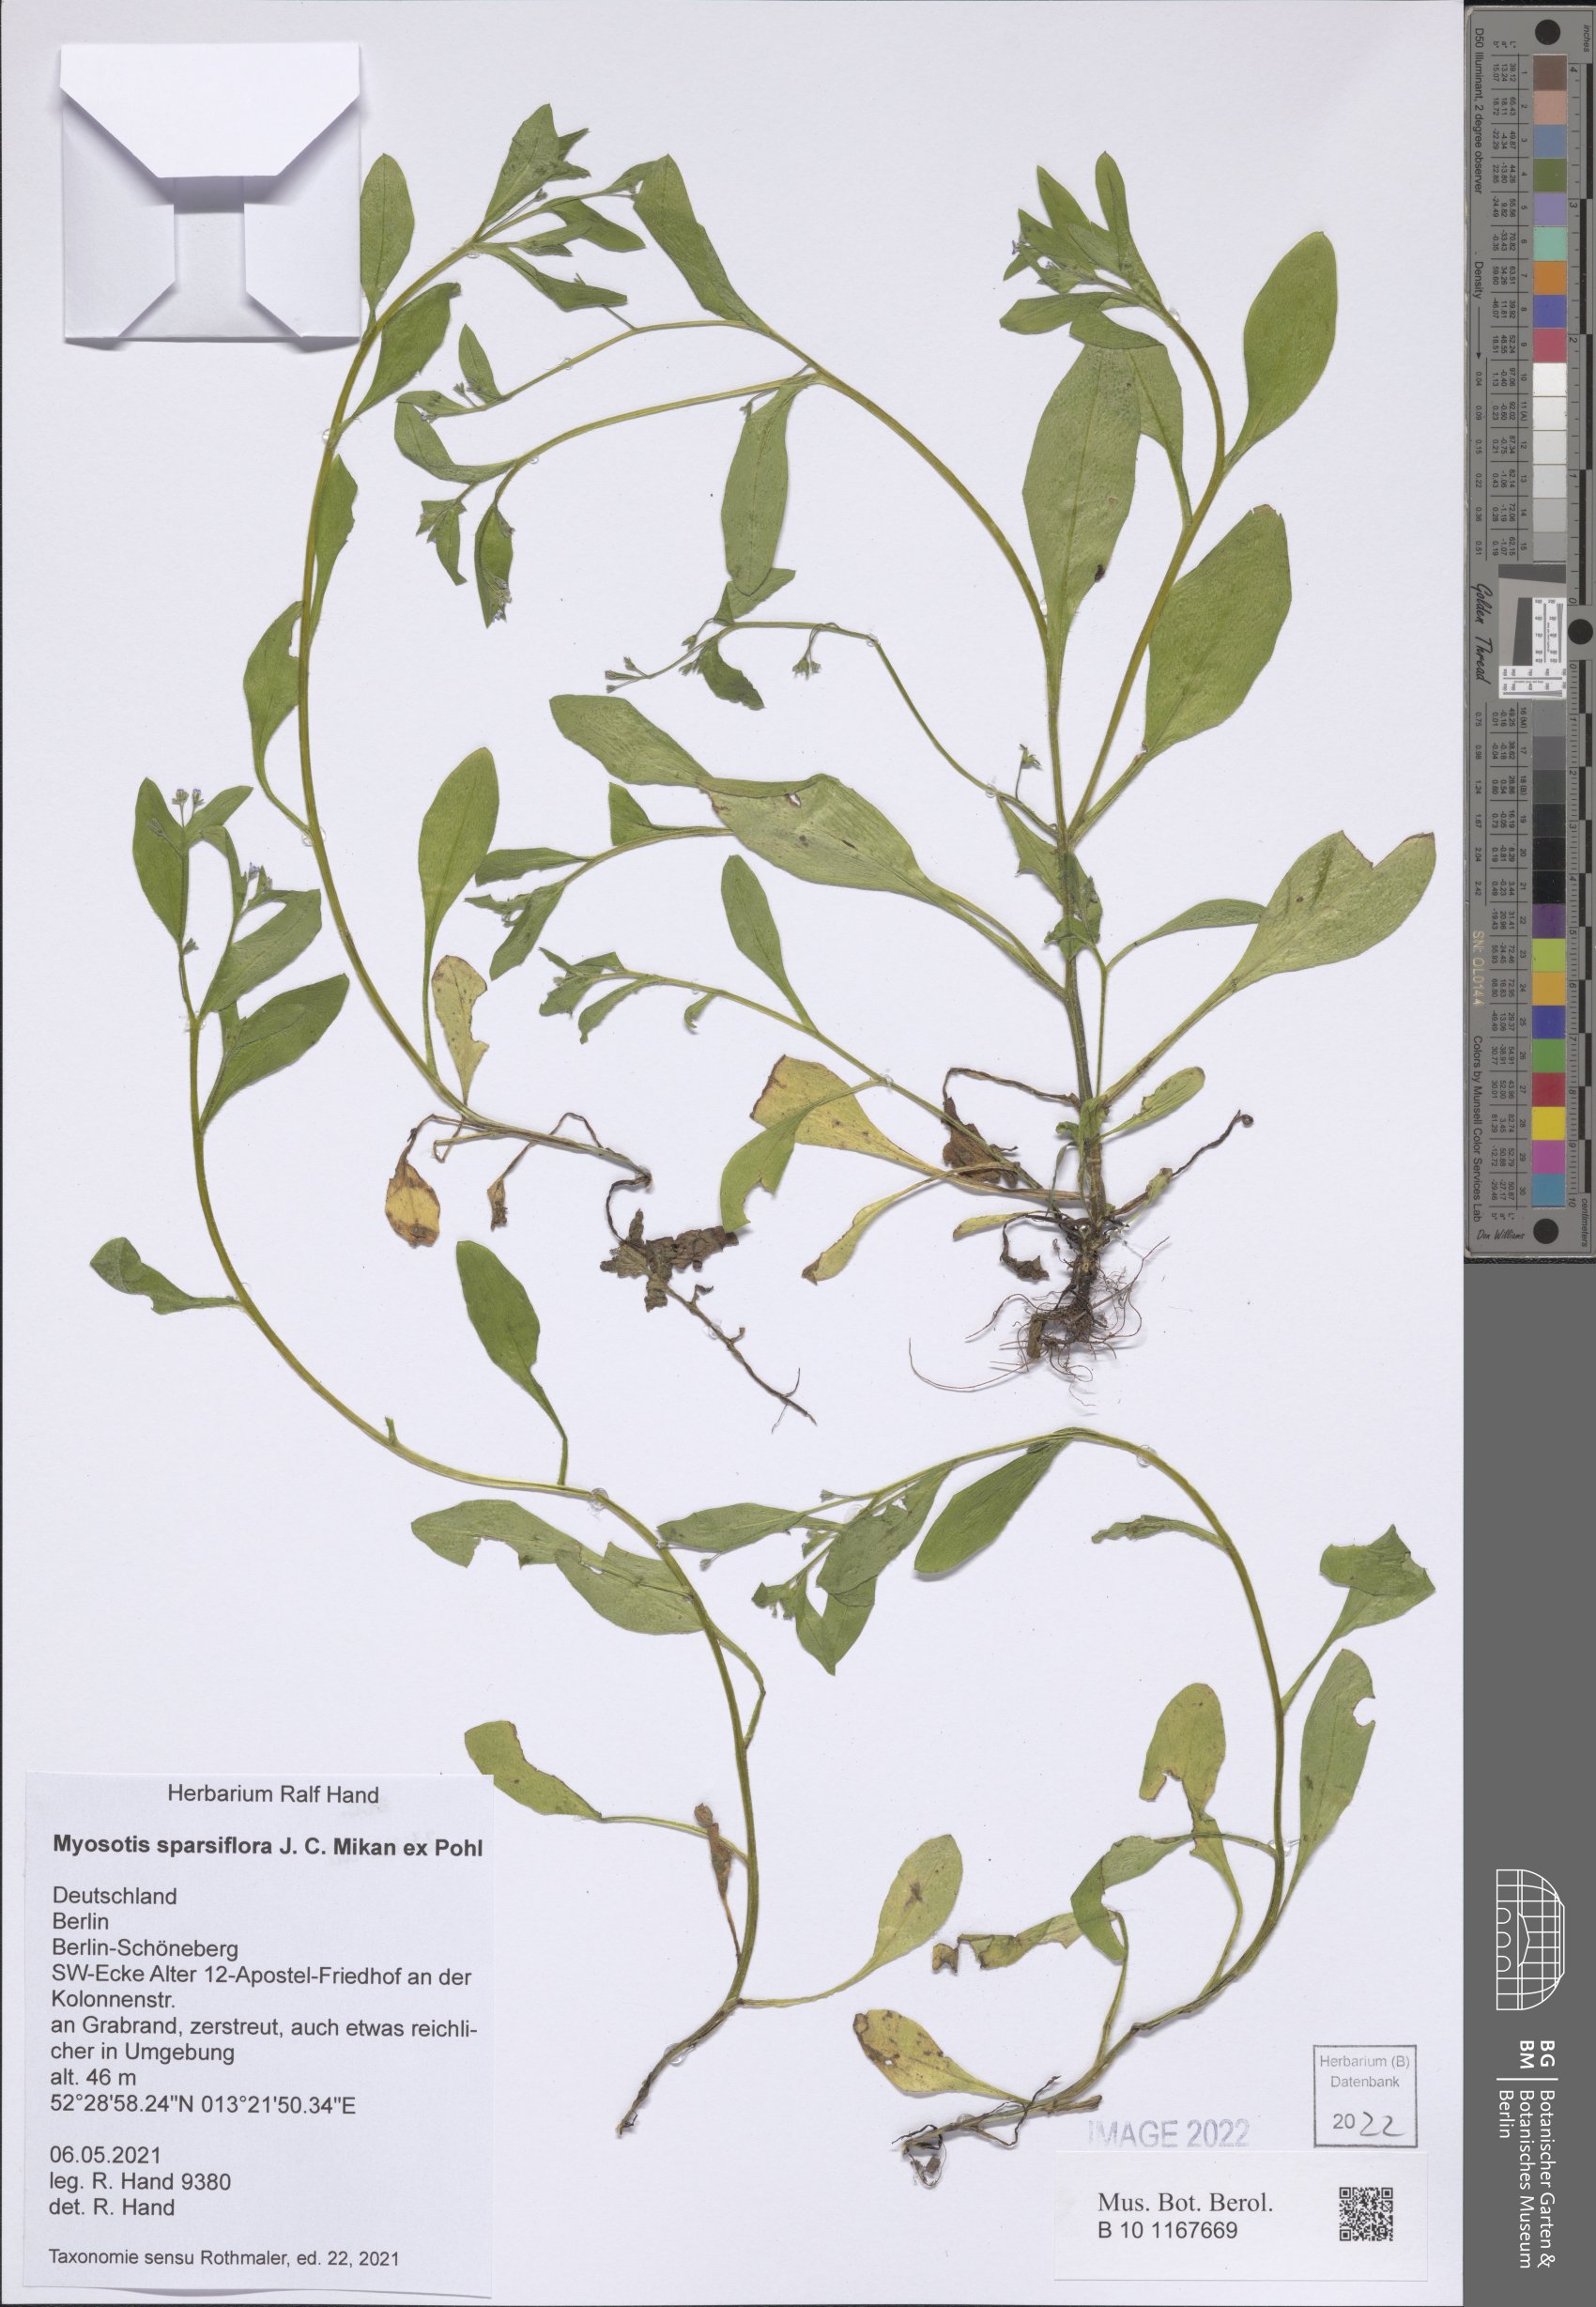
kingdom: Plantae
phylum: Tracheophyta
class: Magnoliopsida
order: Boraginales
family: Boraginaceae
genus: Myosotis
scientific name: Myosotis sparsiflora
